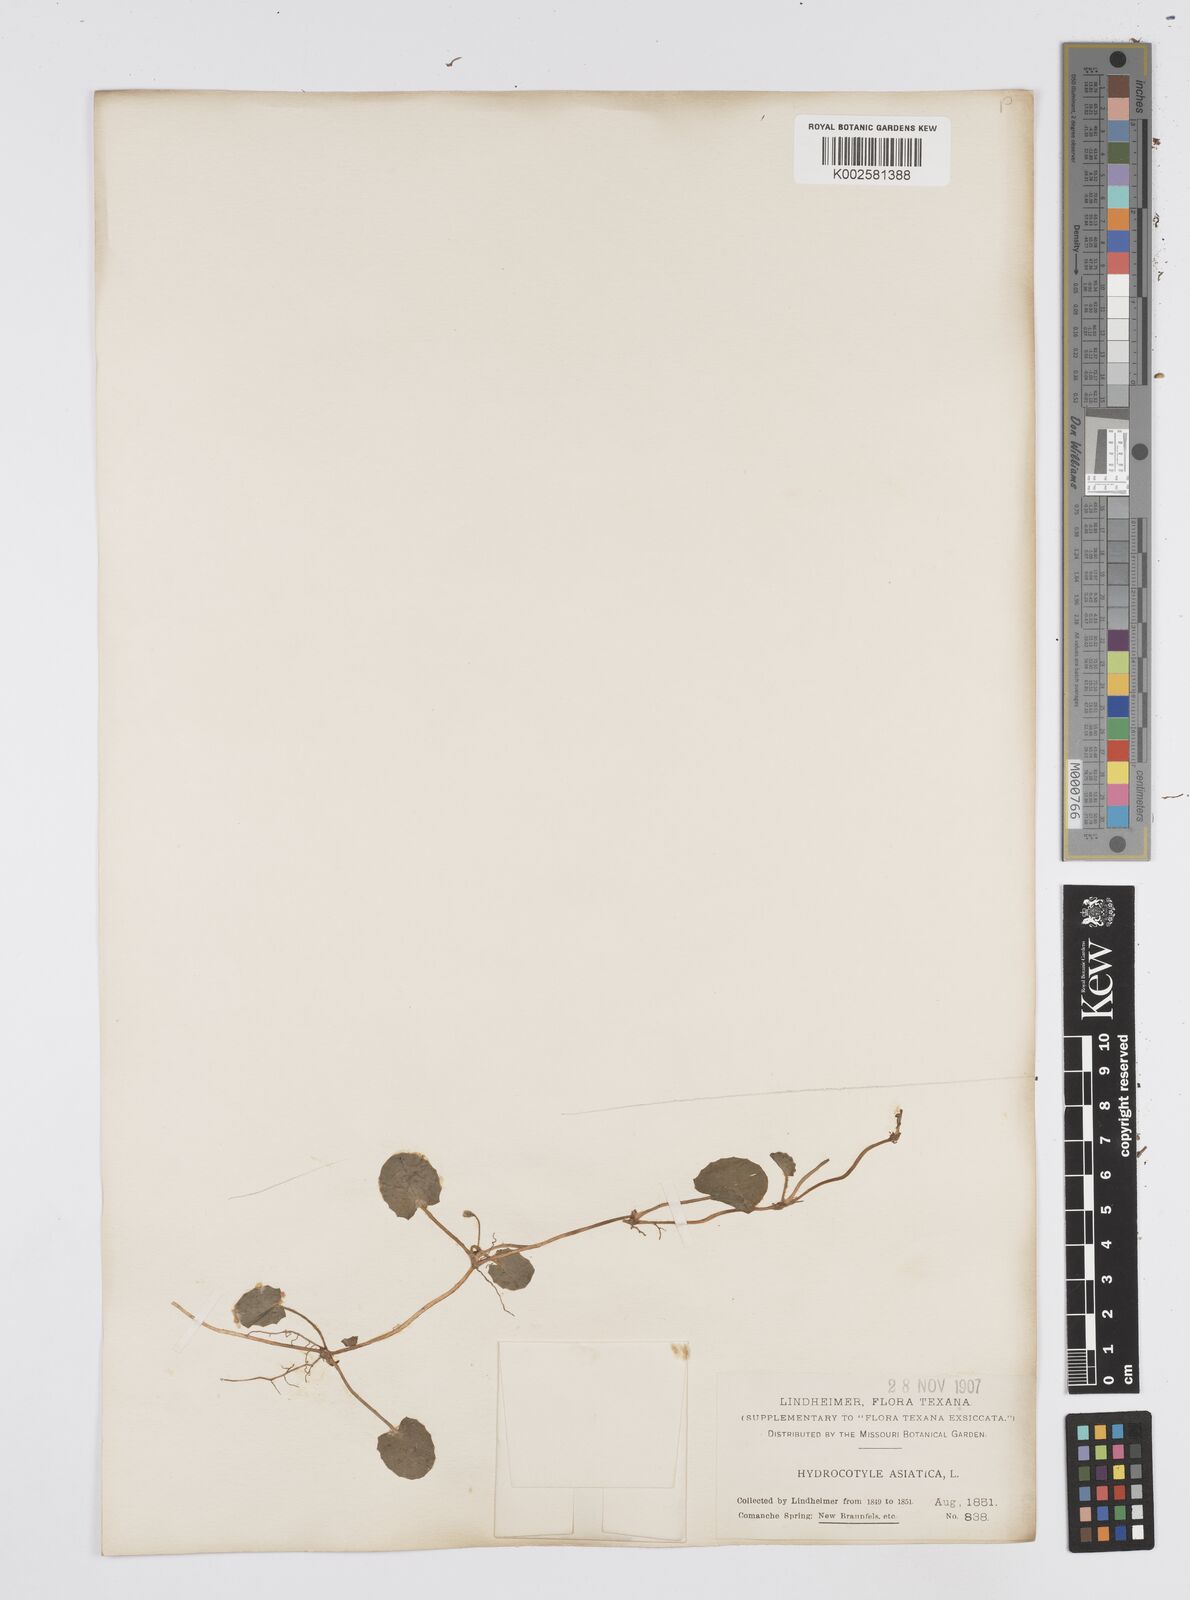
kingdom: Plantae
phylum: Tracheophyta
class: Magnoliopsida
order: Apiales
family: Apiaceae
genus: Centella
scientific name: Centella erecta
